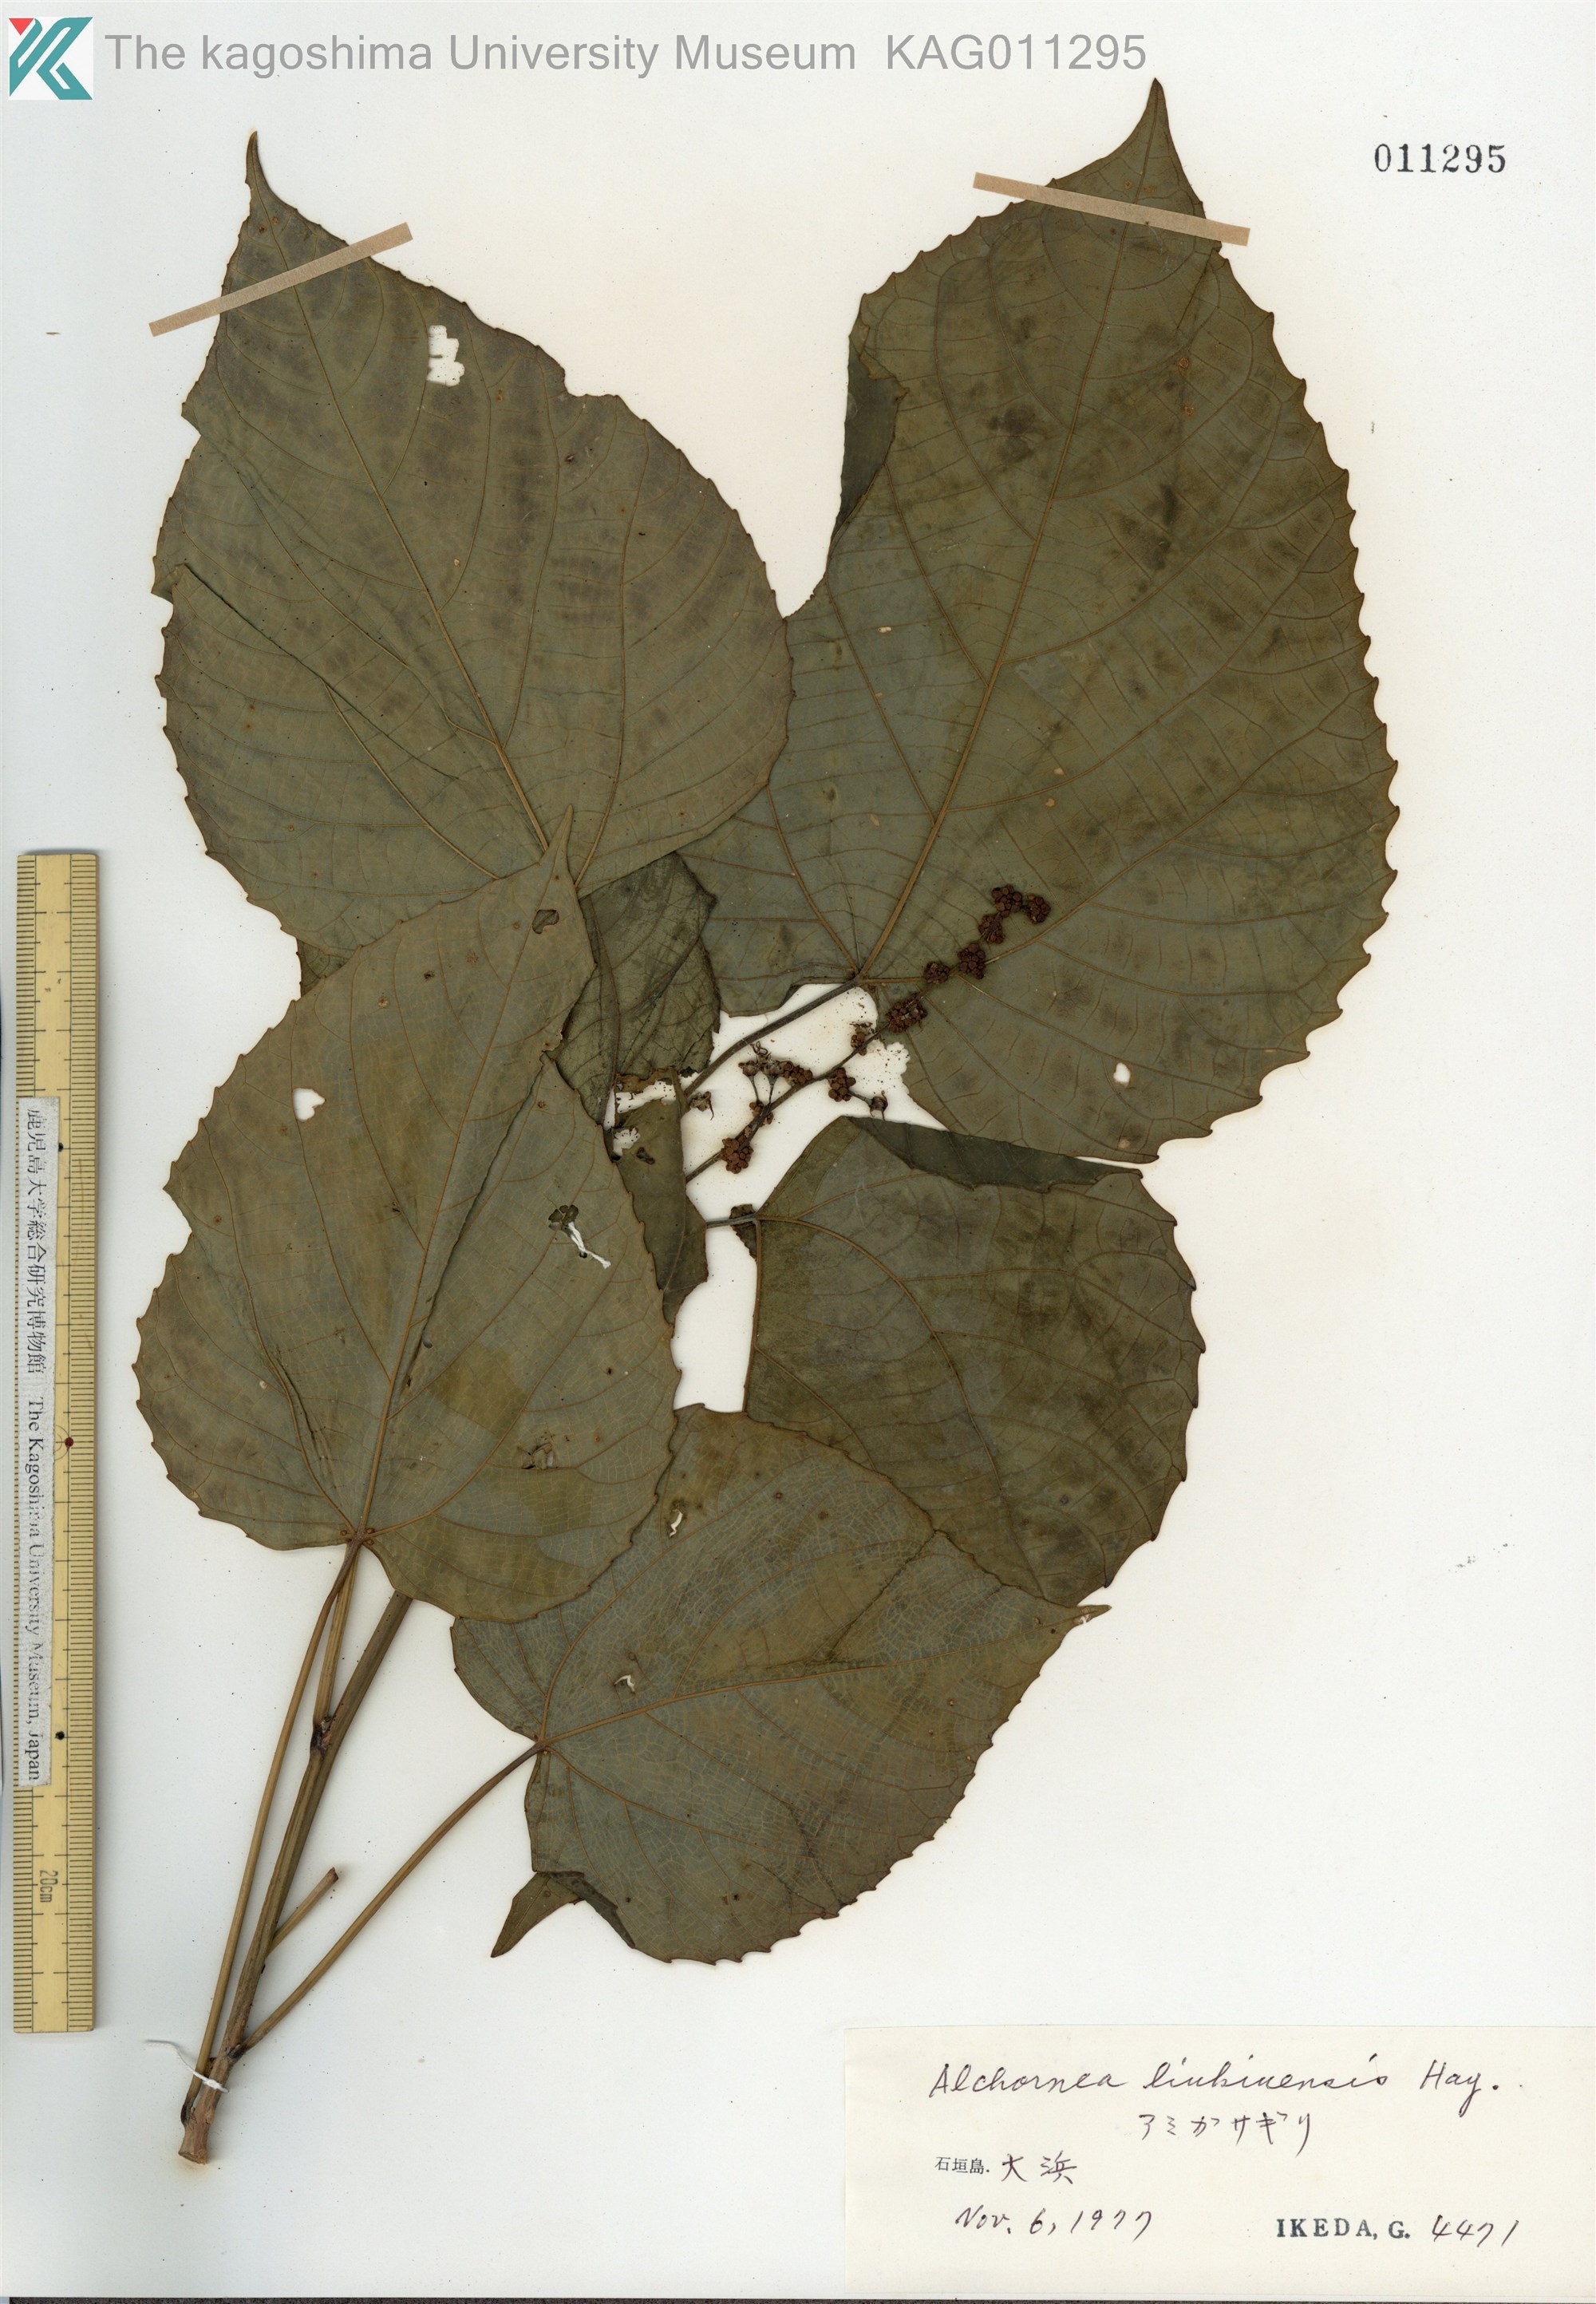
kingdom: Plantae
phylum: Tracheophyta
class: Magnoliopsida
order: Malpighiales
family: Euphorbiaceae
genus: Alchornea
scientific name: Alchornea liukiuensis
